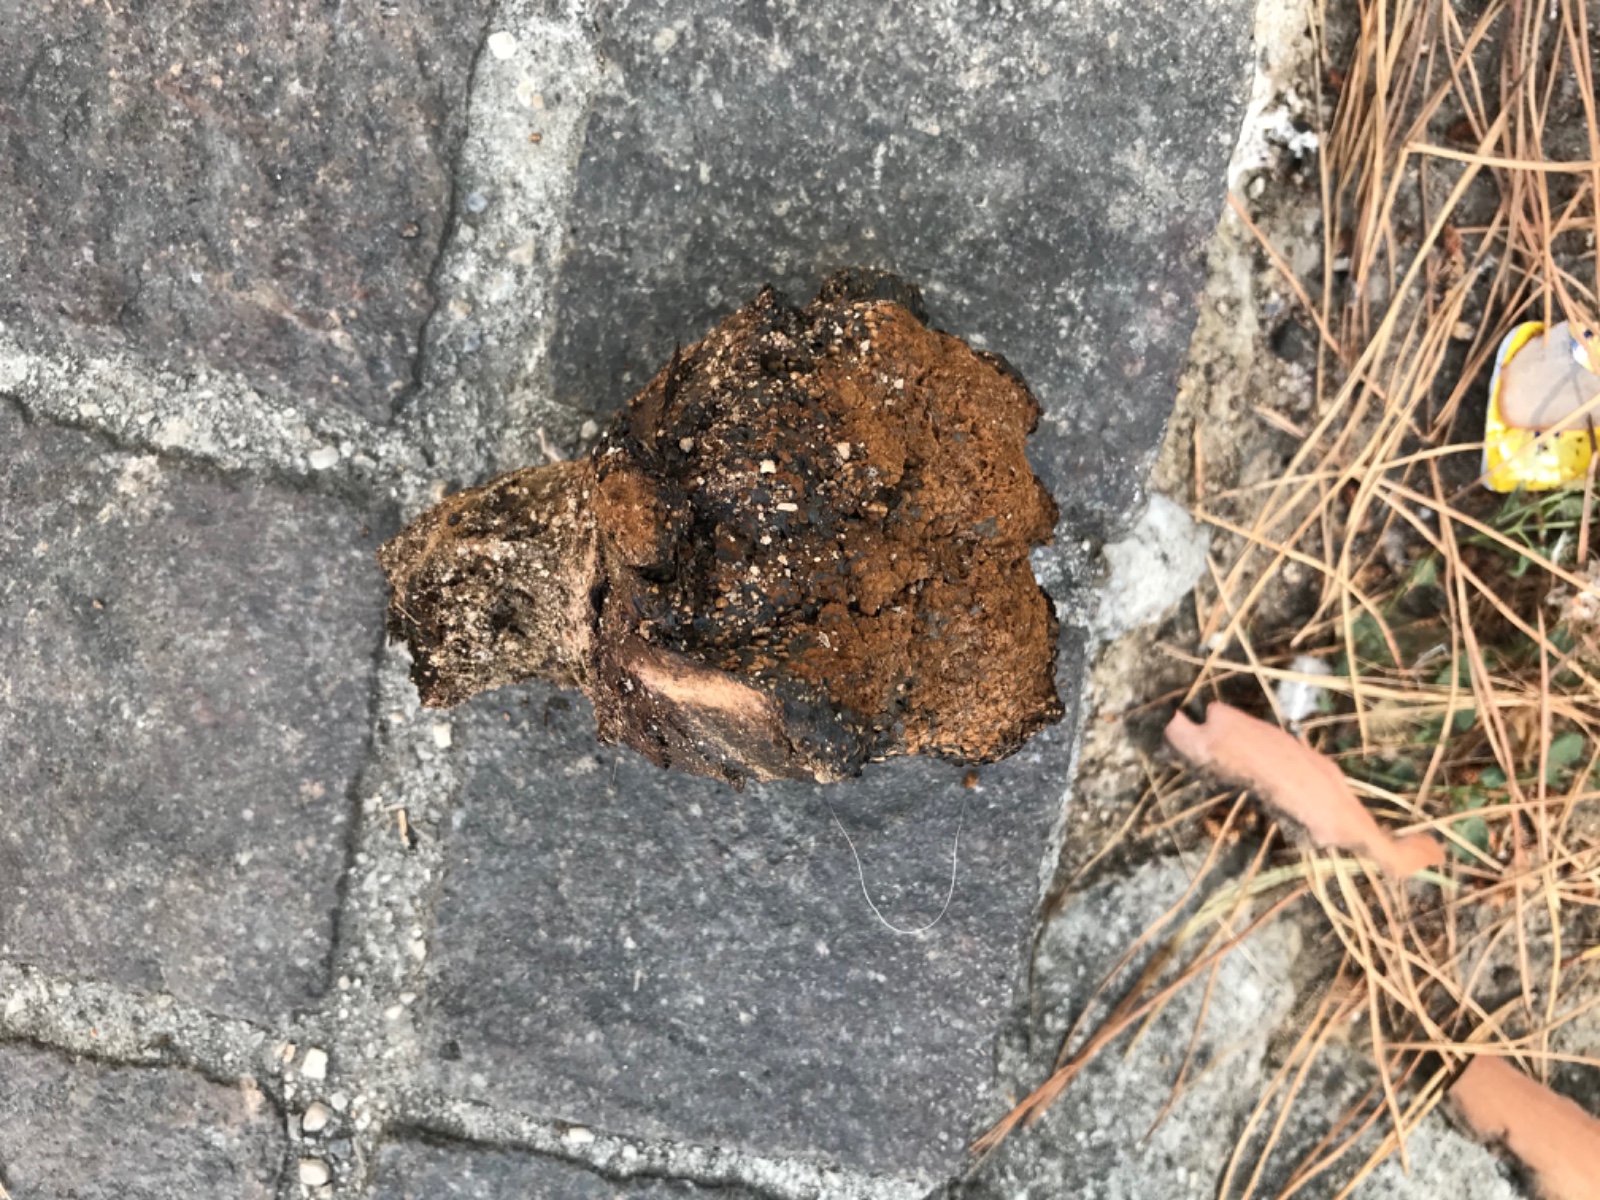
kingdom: Fungi
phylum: Basidiomycota
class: Agaricomycetes
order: Boletales
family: Sclerodermataceae
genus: Pisolithus
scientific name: Pisolithus
